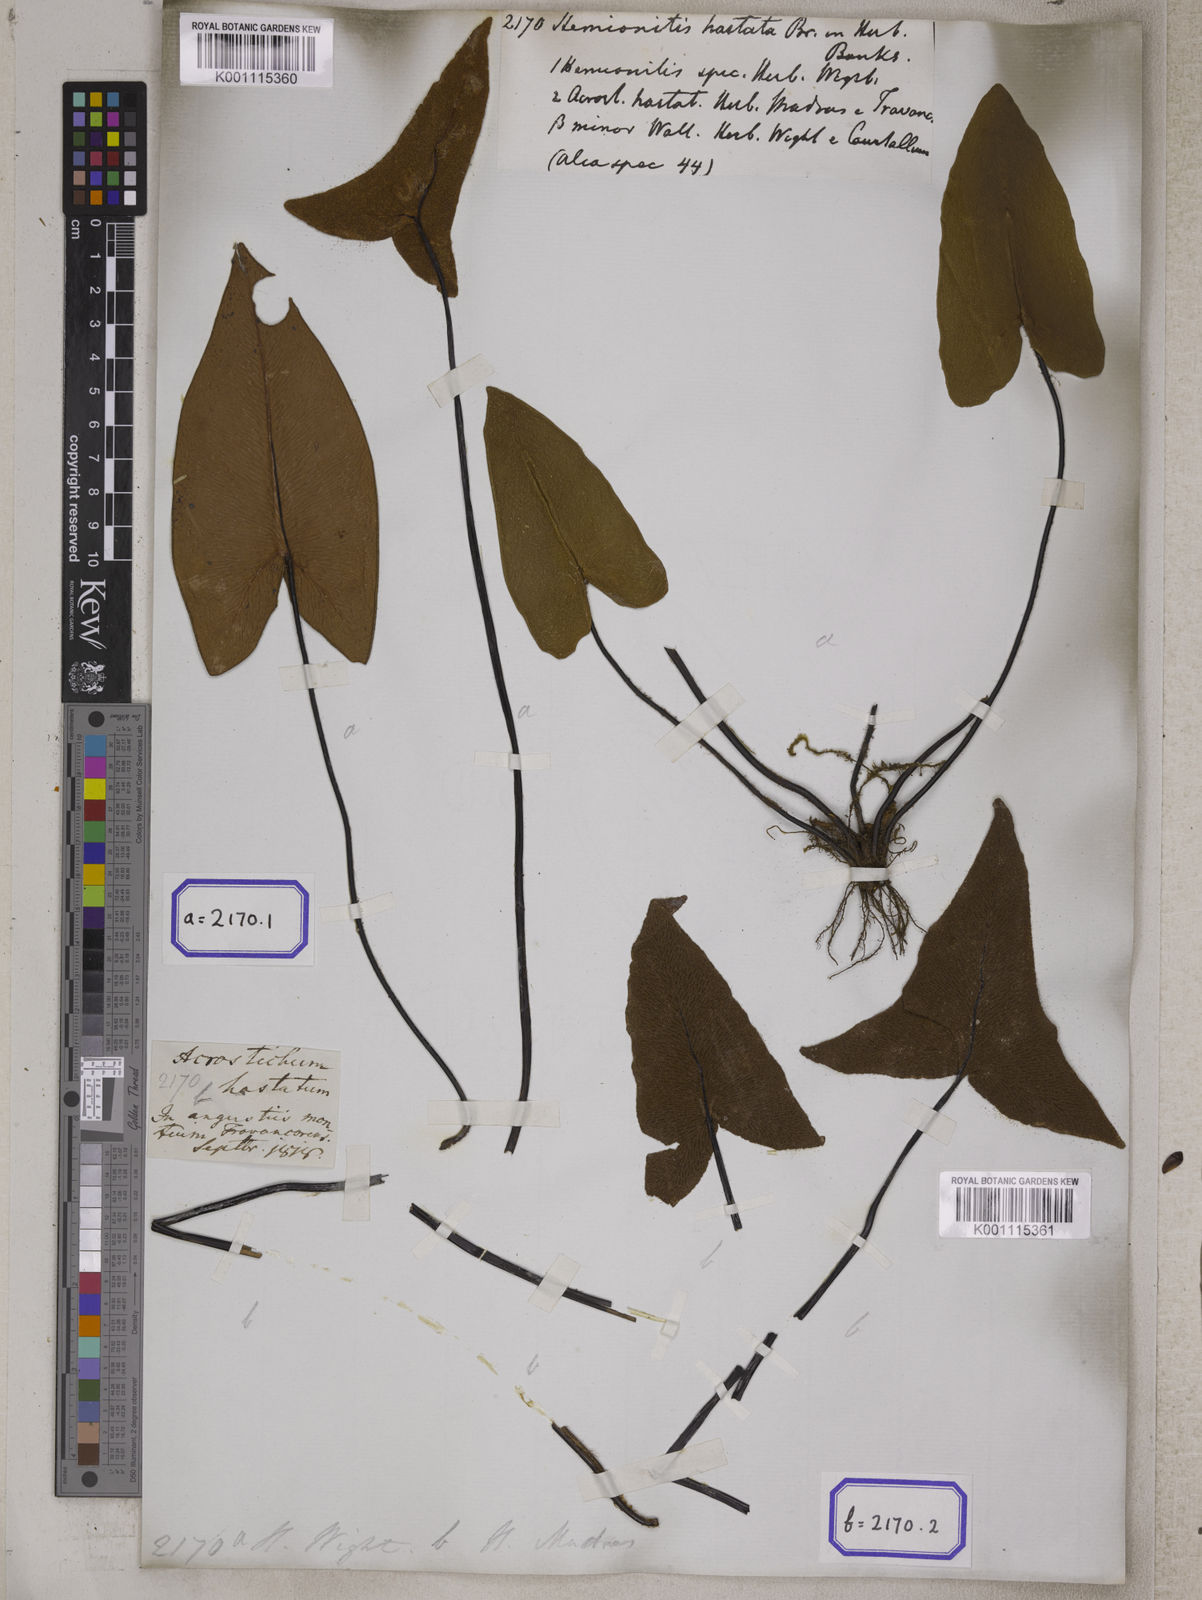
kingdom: Plantae
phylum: Tracheophyta
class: Polypodiopsida
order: Polypodiales
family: Pteridaceae
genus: Hemionitis
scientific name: Hemionitis
